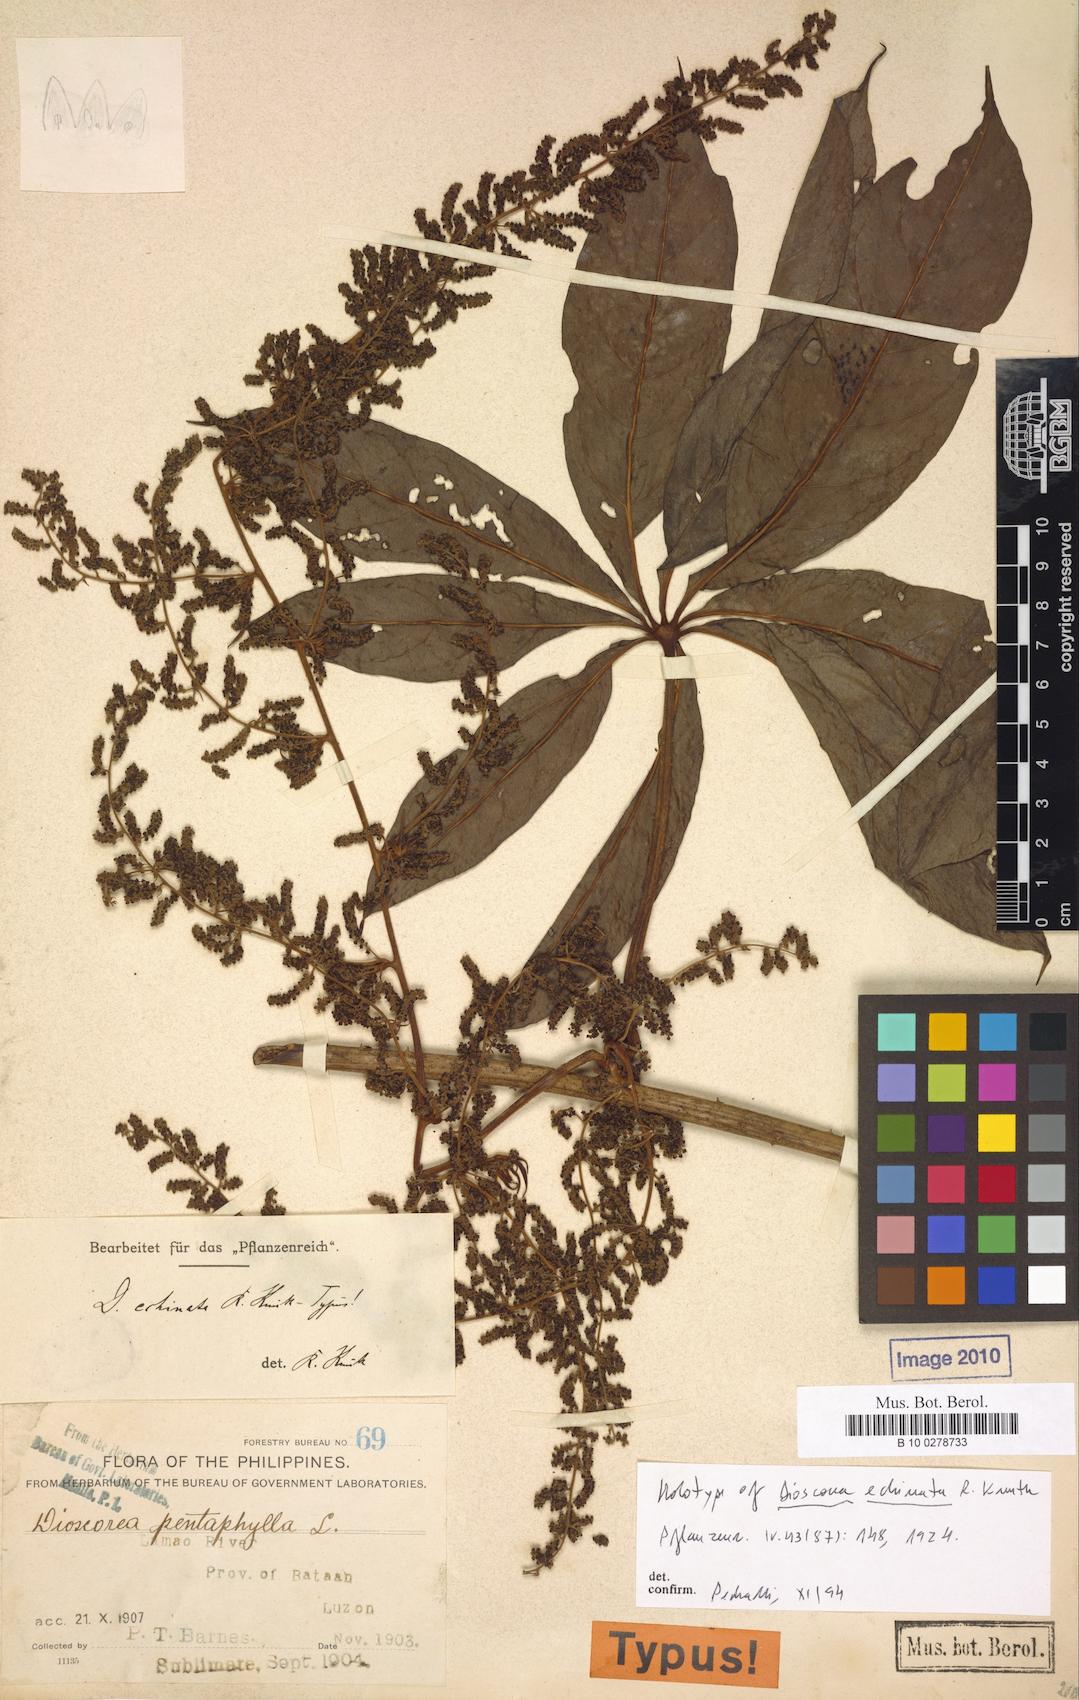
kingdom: Plantae
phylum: Tracheophyta
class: Liliopsida
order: Dioscoreales
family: Dioscoreaceae
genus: Dioscorea
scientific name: Dioscorea cumingii
